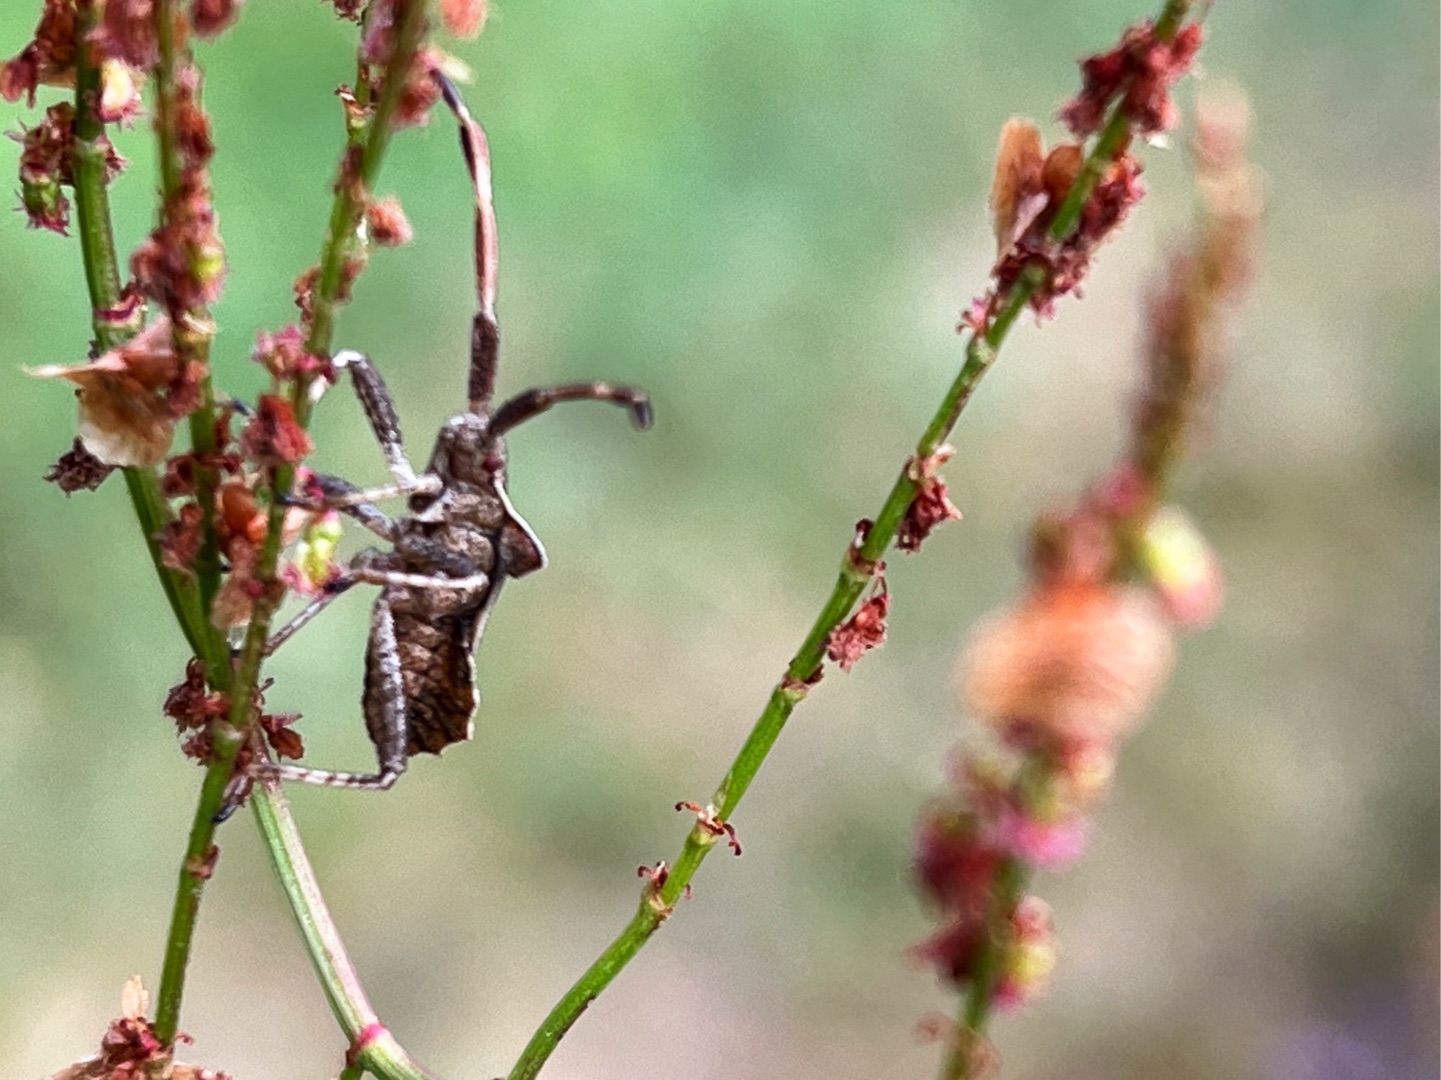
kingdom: Animalia
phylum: Arthropoda
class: Insecta
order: Hemiptera
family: Coreidae
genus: Coreus
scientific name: Coreus marginatus
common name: Skræppetæge
